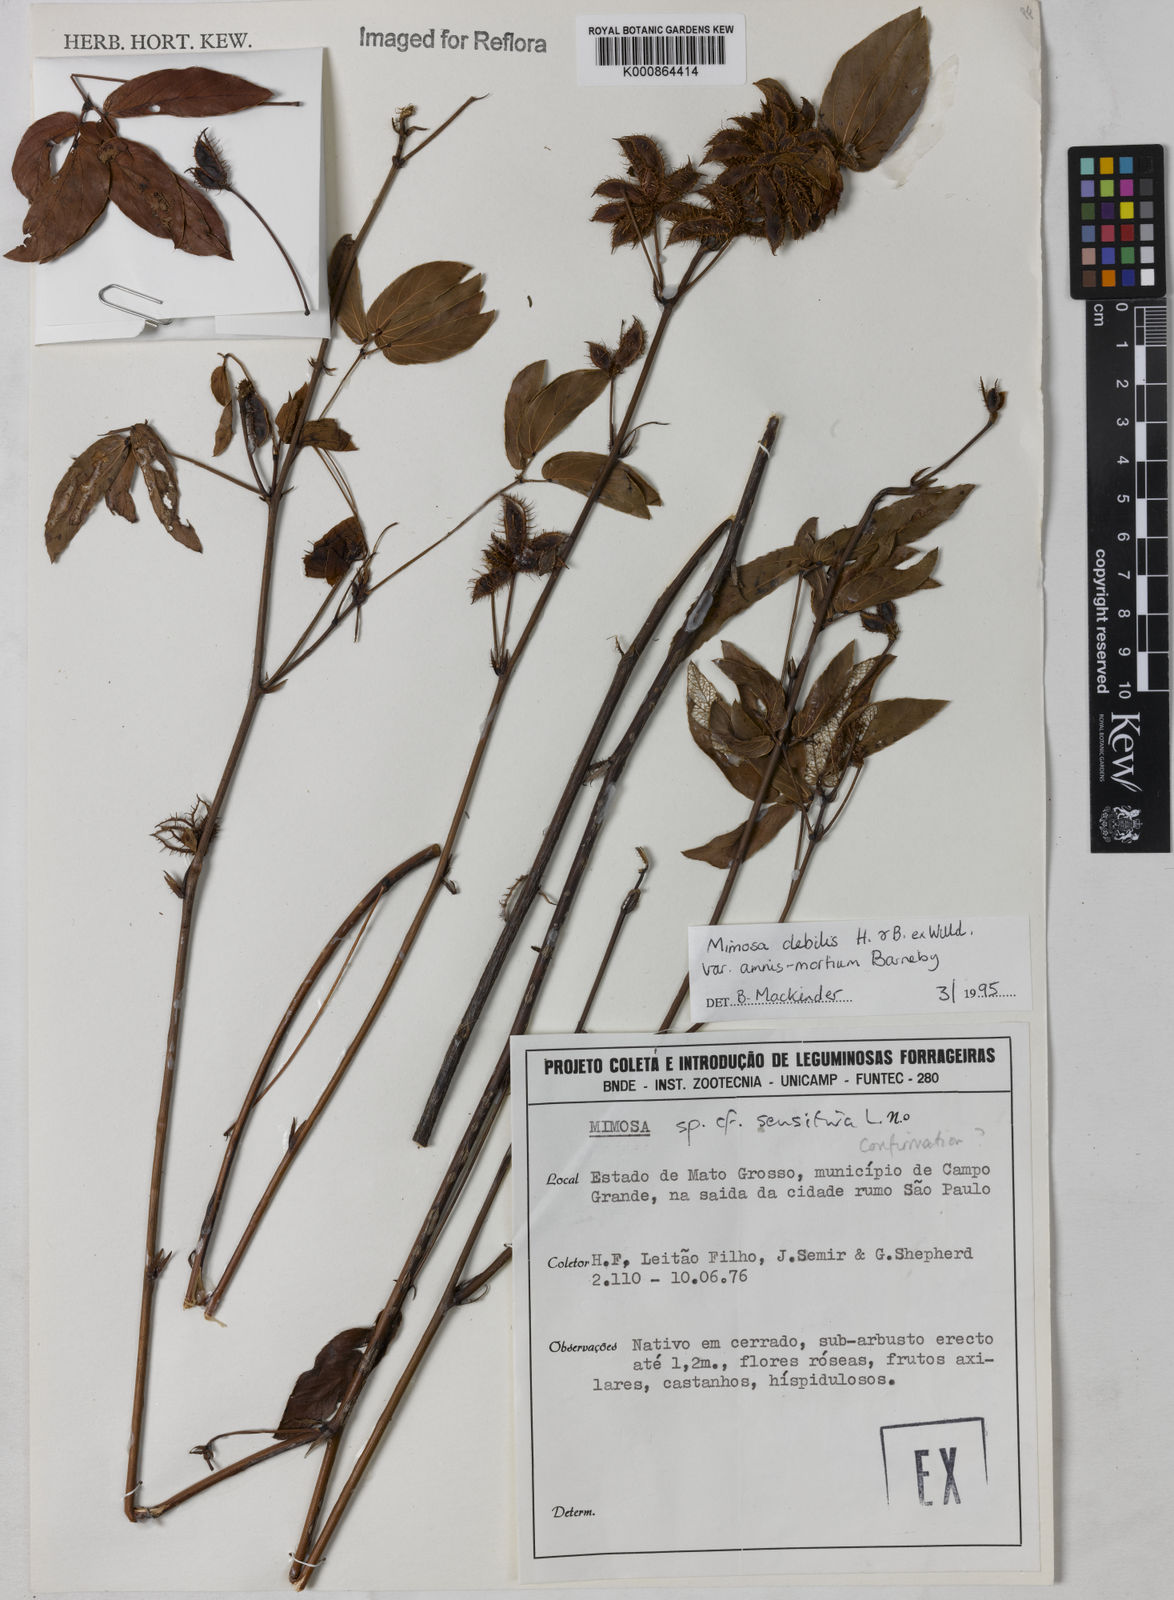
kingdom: Plantae
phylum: Tracheophyta
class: Magnoliopsida
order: Fabales
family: Fabaceae
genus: Mimosa
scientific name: Mimosa debilis
